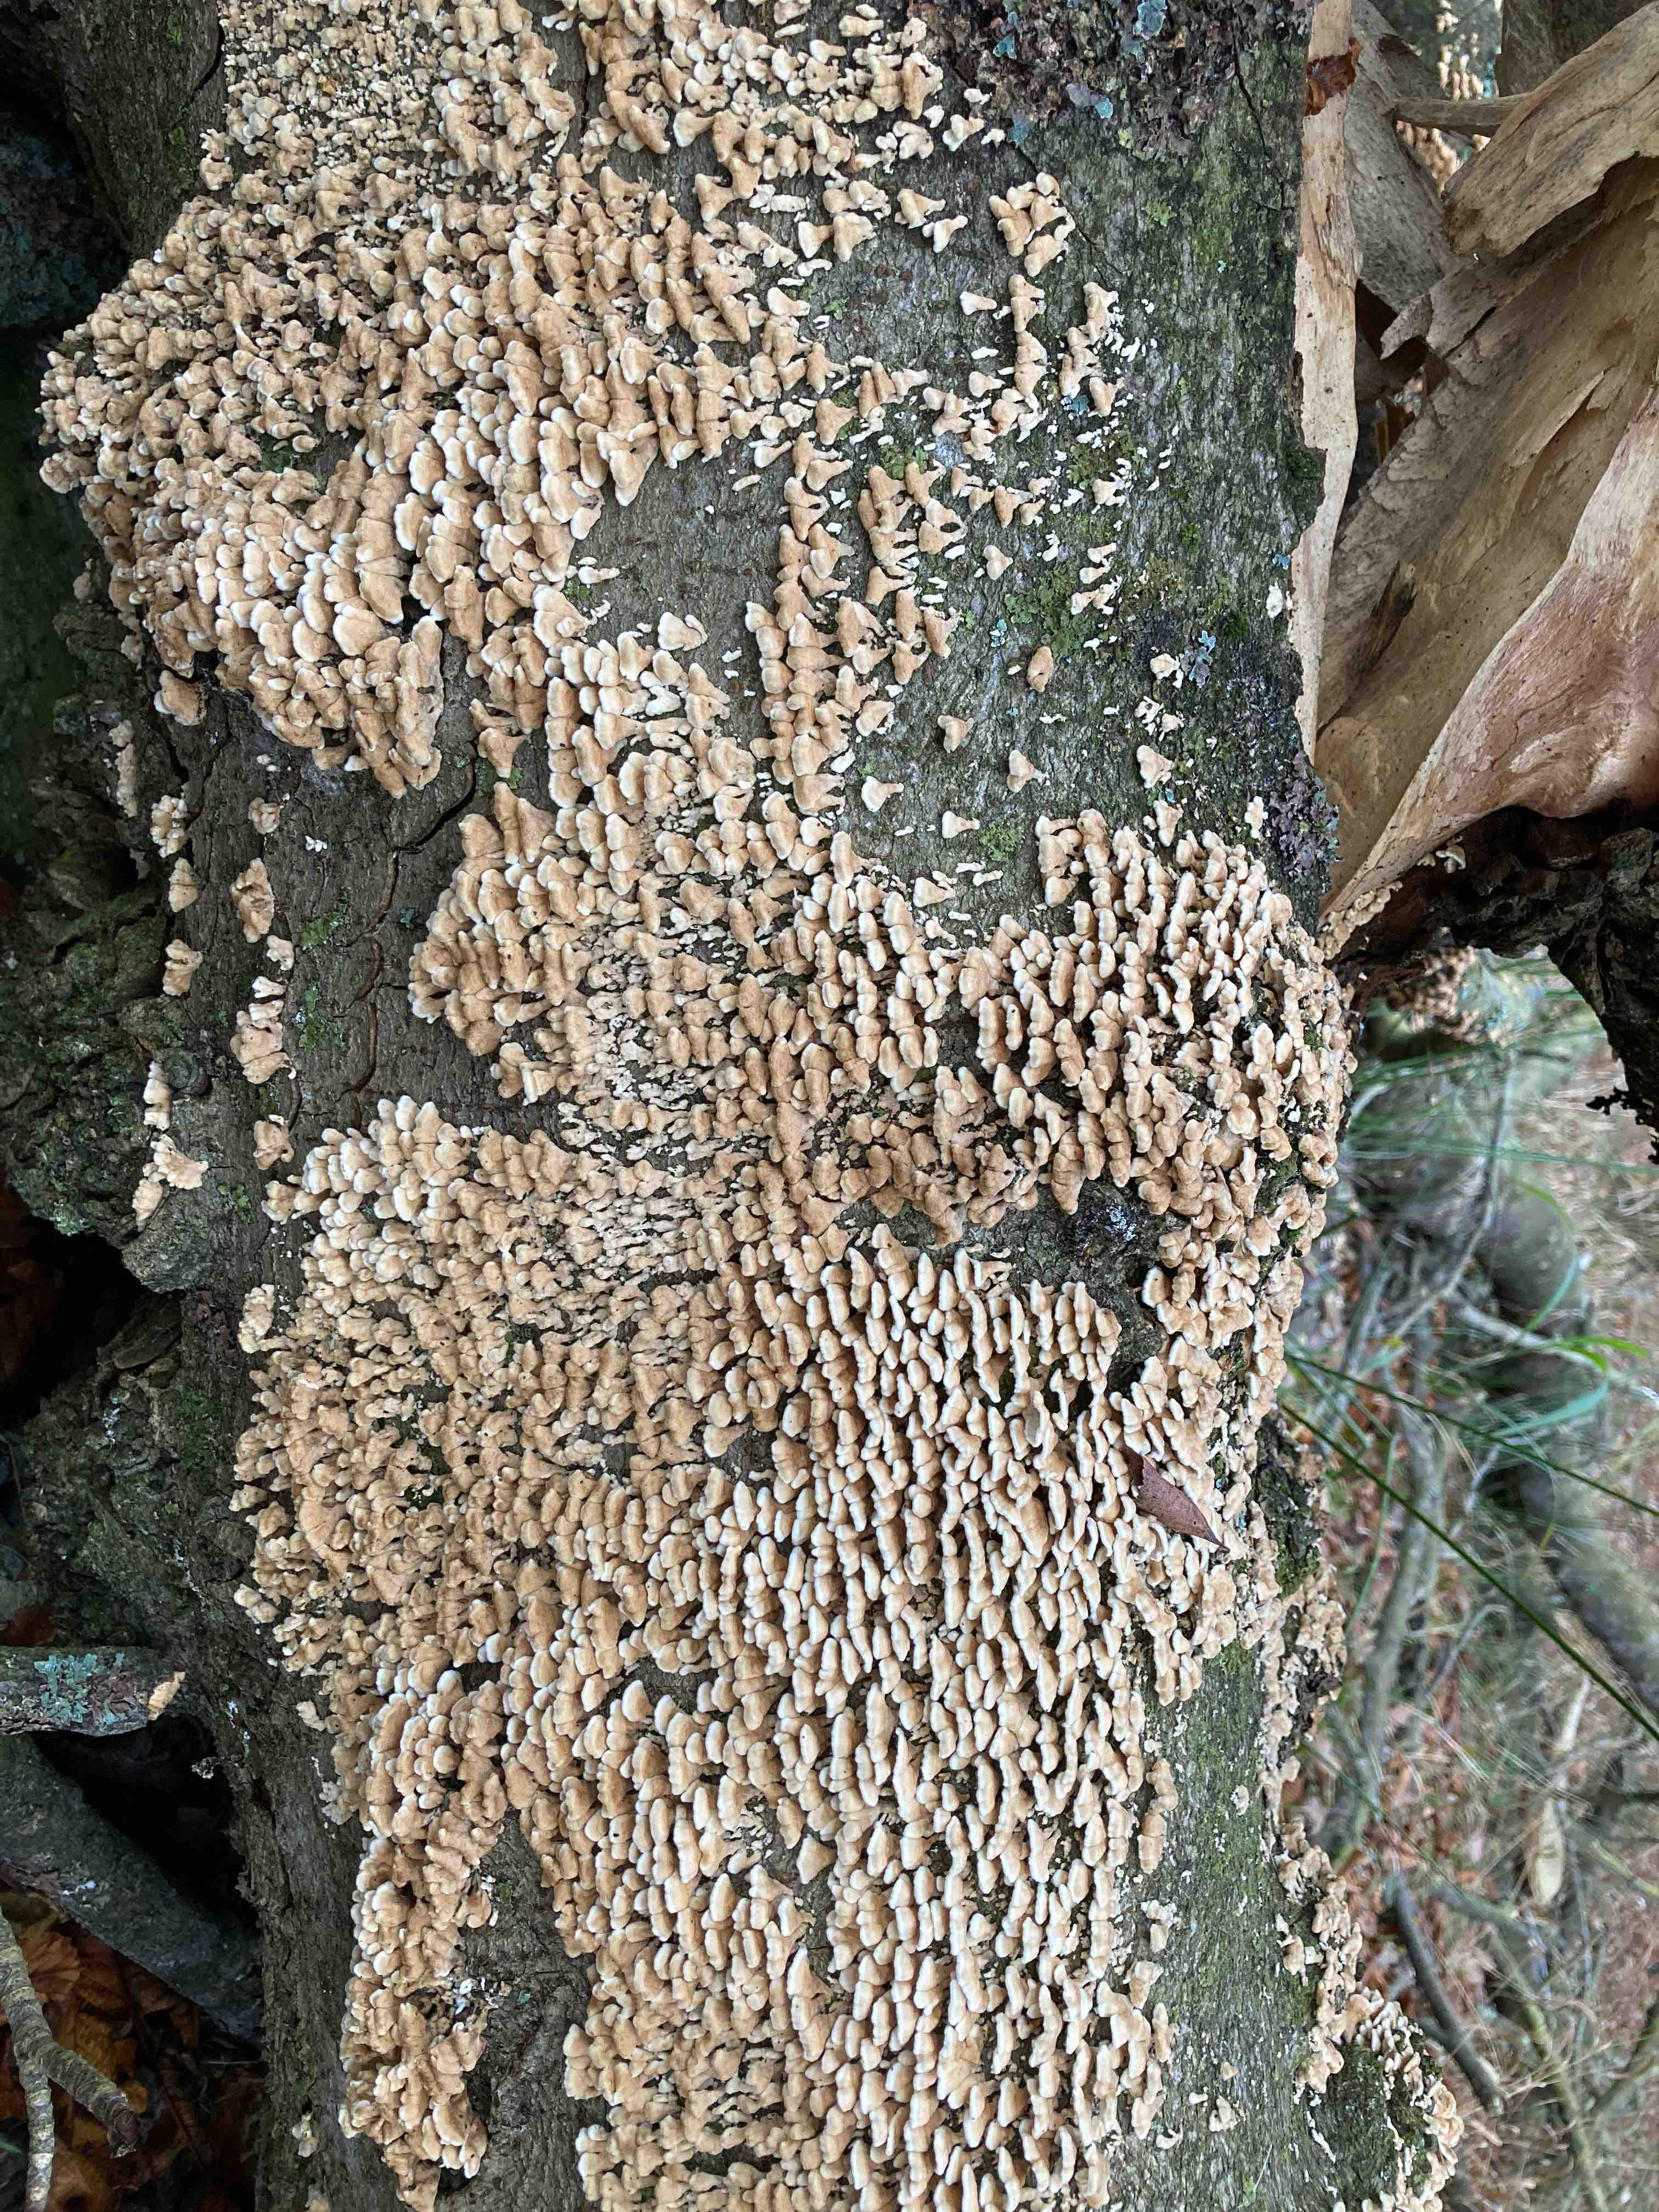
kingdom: Fungi
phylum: Basidiomycota
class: Agaricomycetes
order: Amylocorticiales
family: Amylocorticiaceae
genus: Plicaturopsis
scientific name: Plicaturopsis crispa
